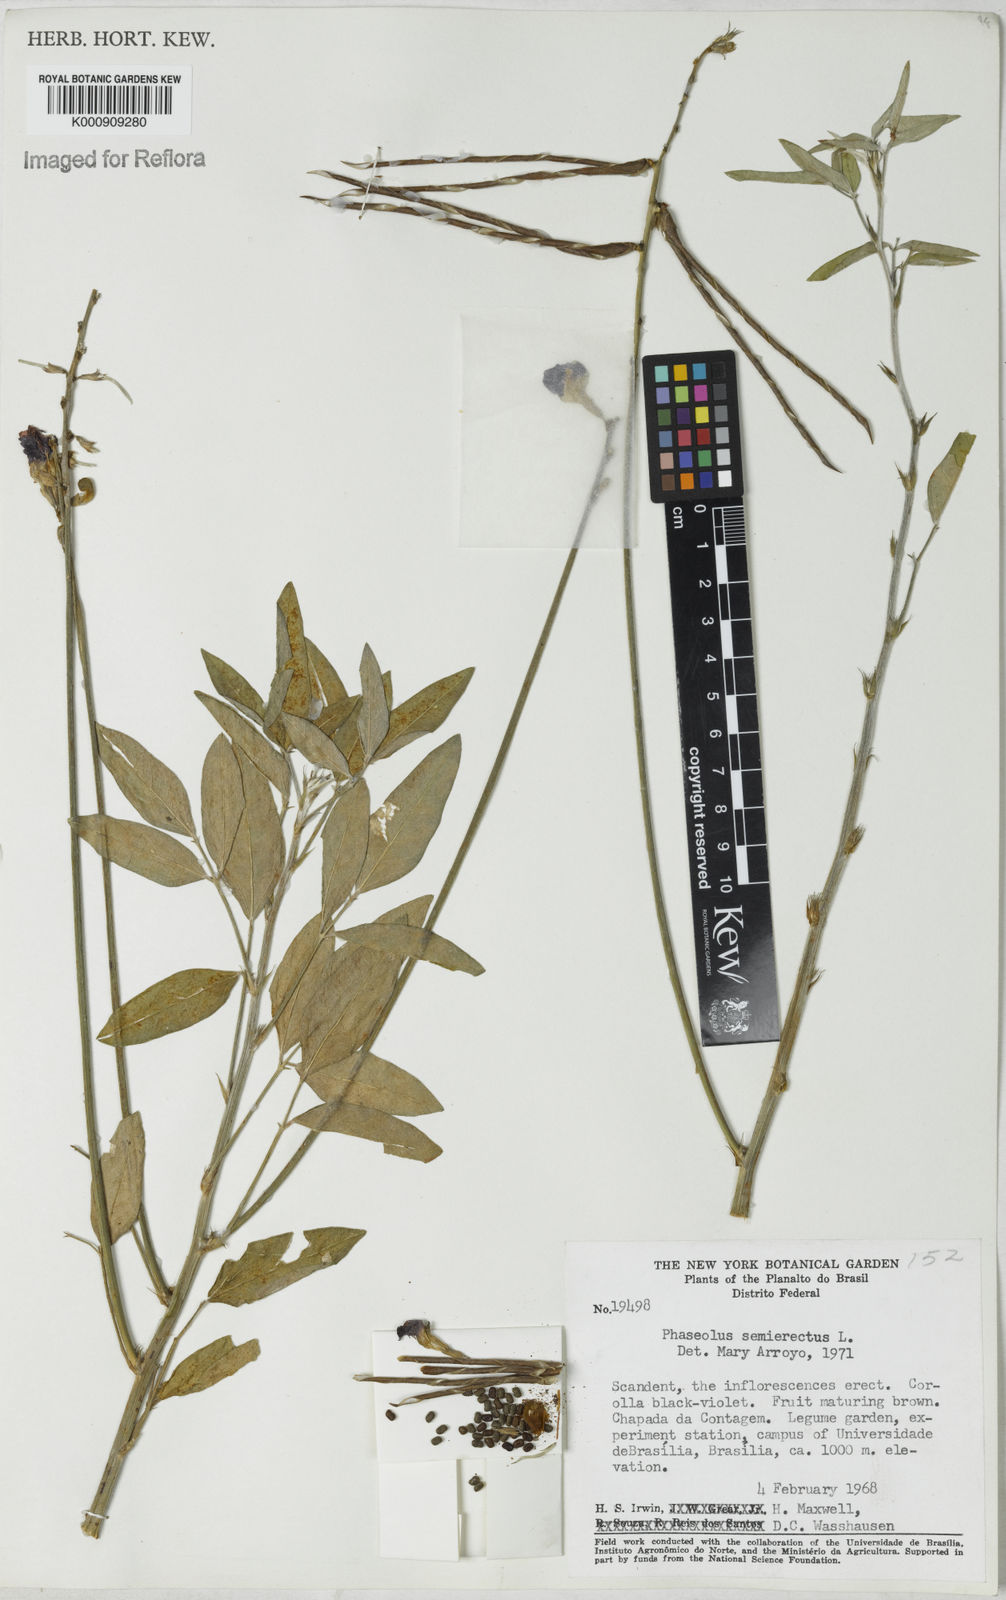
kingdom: Plantae
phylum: Tracheophyta
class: Magnoliopsida
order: Fabales
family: Fabaceae
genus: Macroptilium
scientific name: Macroptilium lathyroides
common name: Wild bushbean
